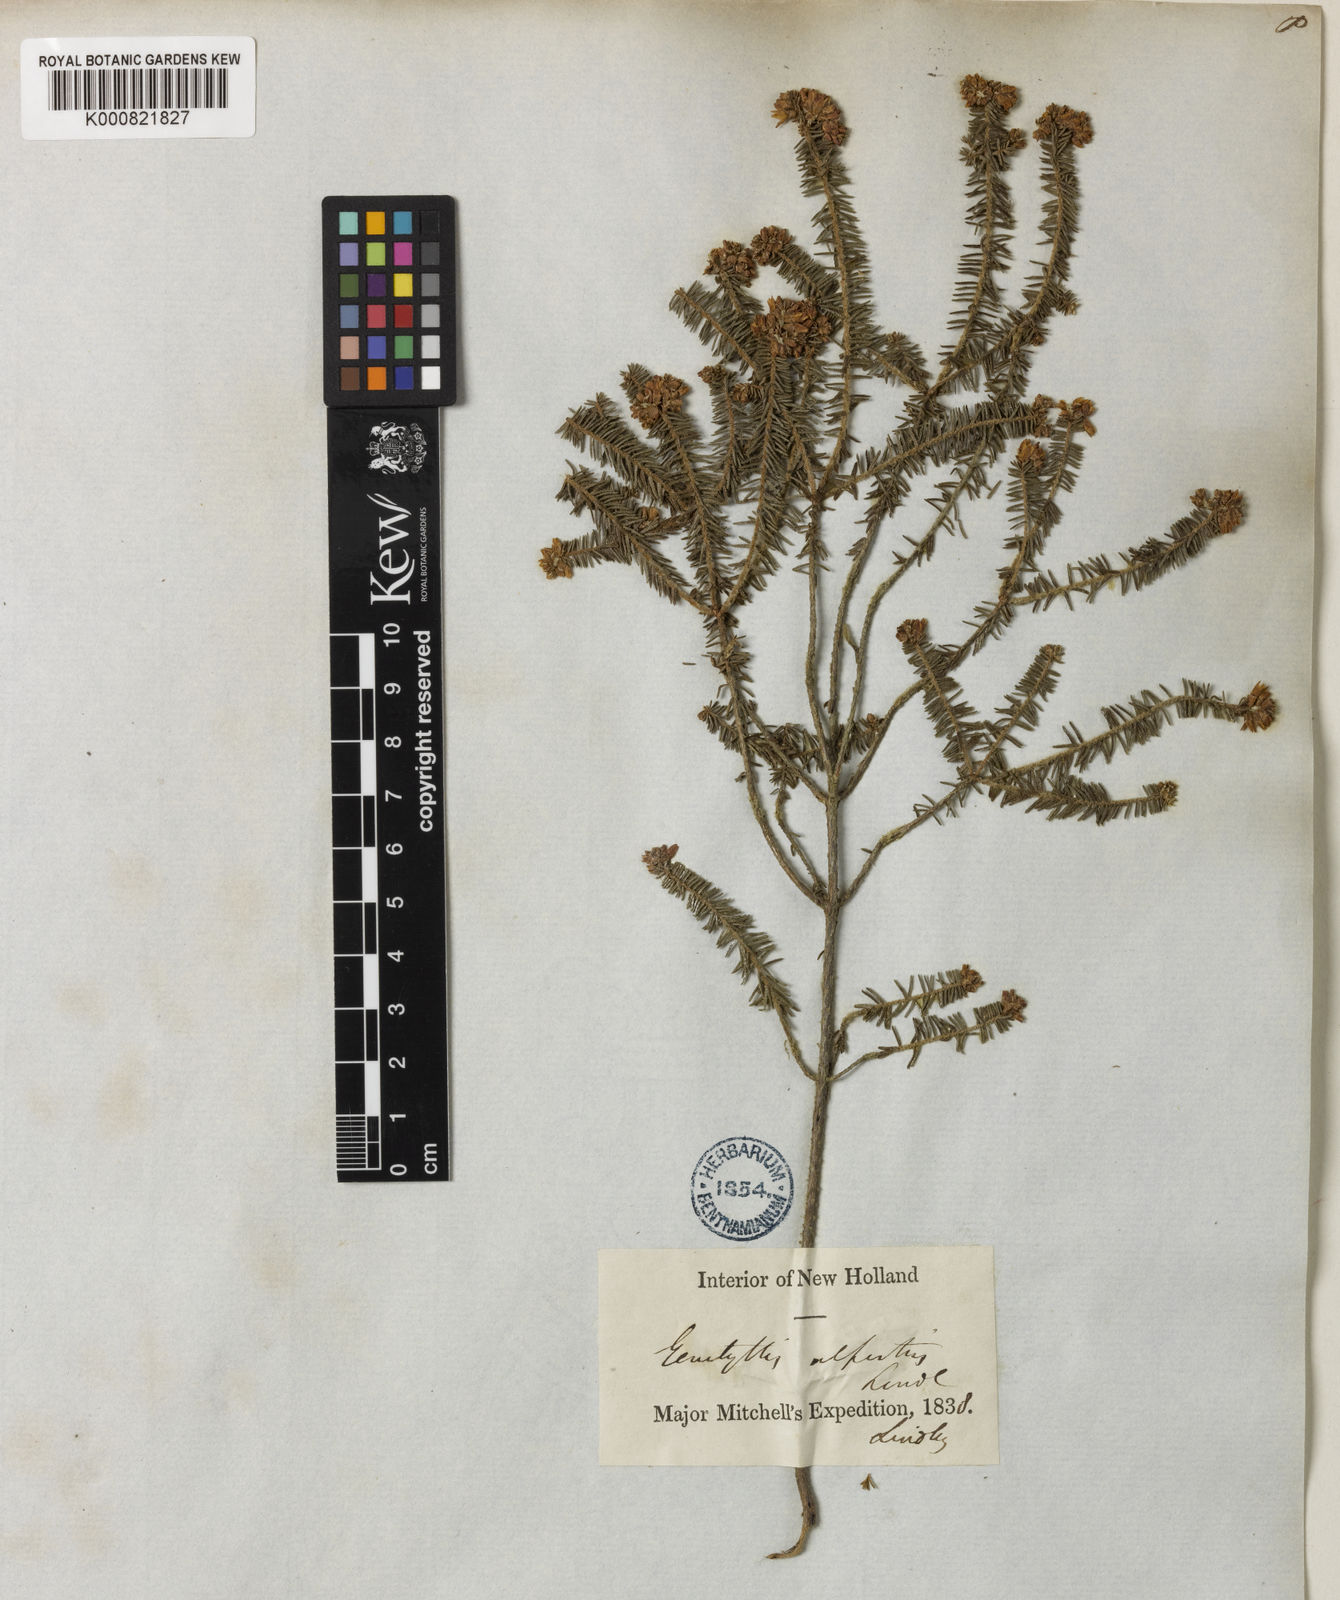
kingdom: Plantae
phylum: Tracheophyta
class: Magnoliopsida
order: Myrtales
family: Myrtaceae
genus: Calytrix
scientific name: Calytrix alpestris
